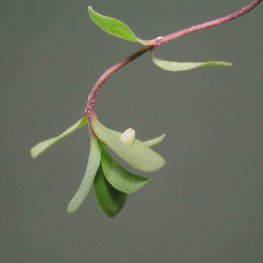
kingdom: Animalia
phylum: Arthropoda
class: Insecta
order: Lepidoptera
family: Nymphalidae
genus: Euptoieta
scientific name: Euptoieta claudia
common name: Variegated Fritillary
